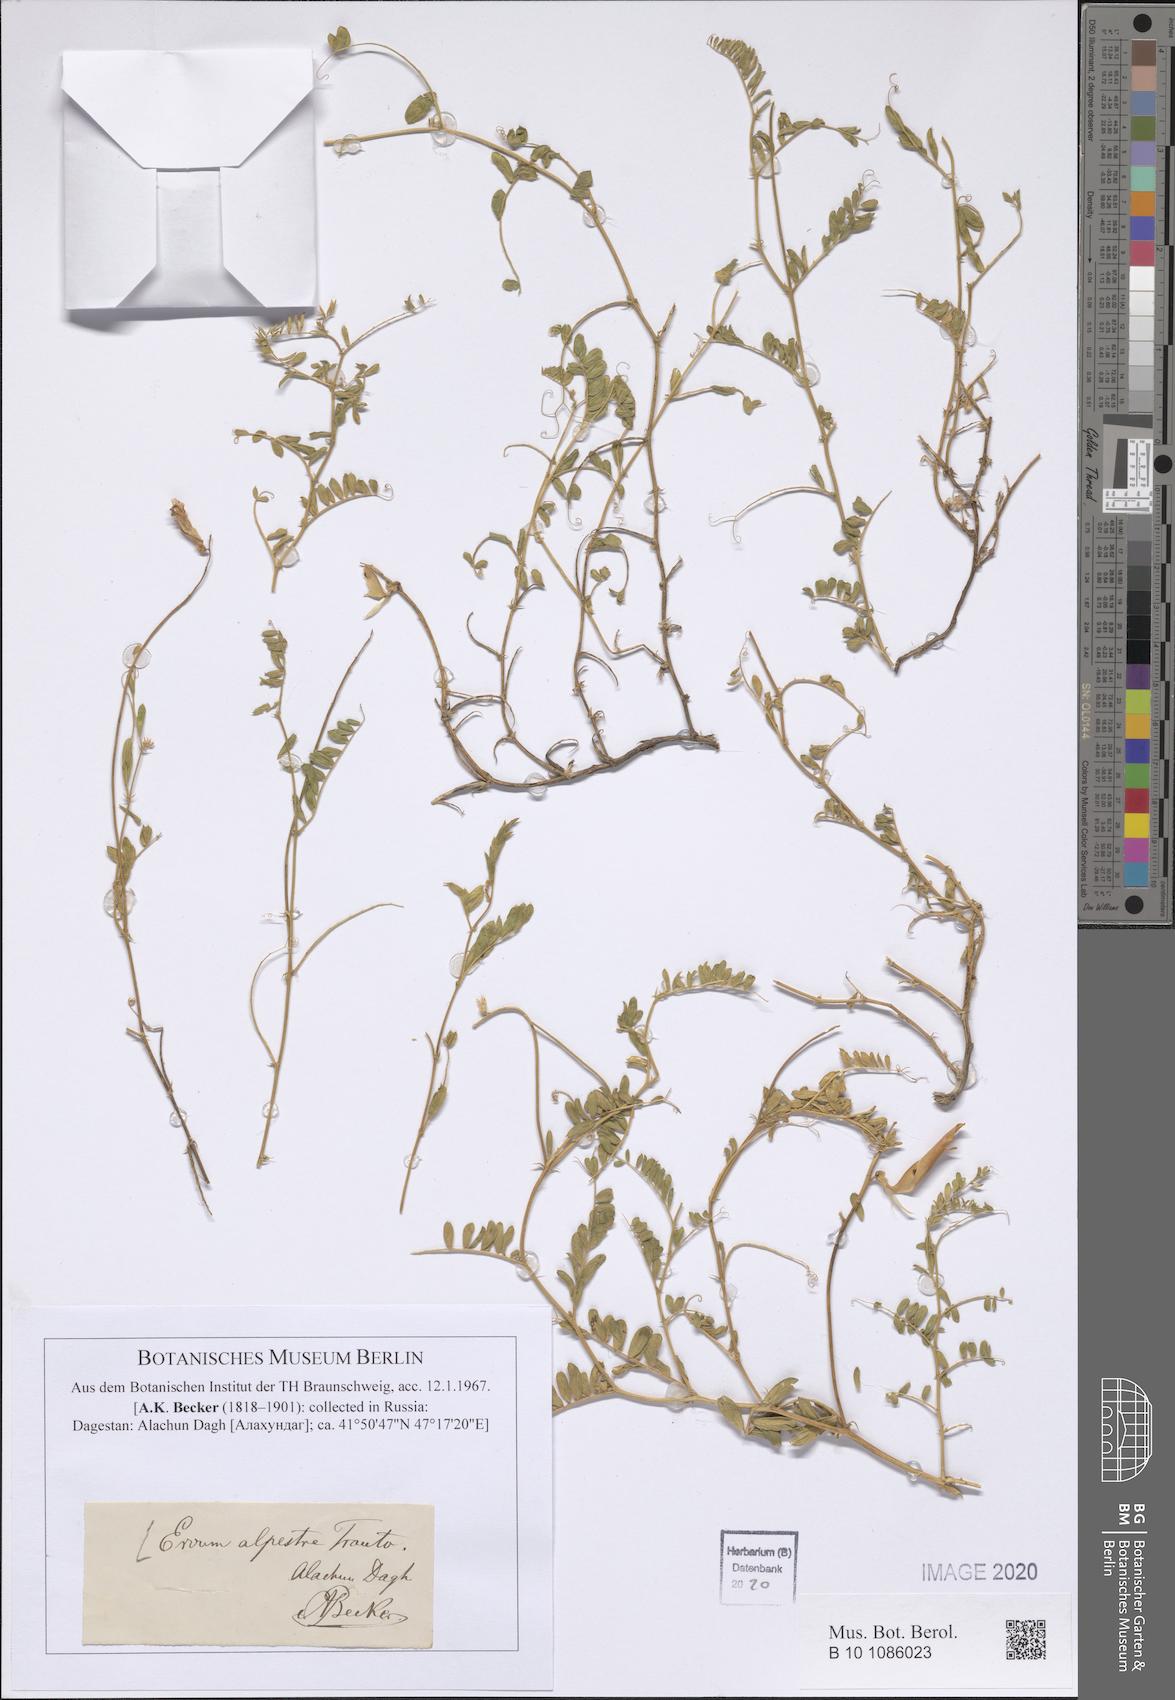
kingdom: Plantae
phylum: Tracheophyta
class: Magnoliopsida
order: Fabales
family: Fabaceae
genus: Vicia
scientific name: Vicia alpestris
